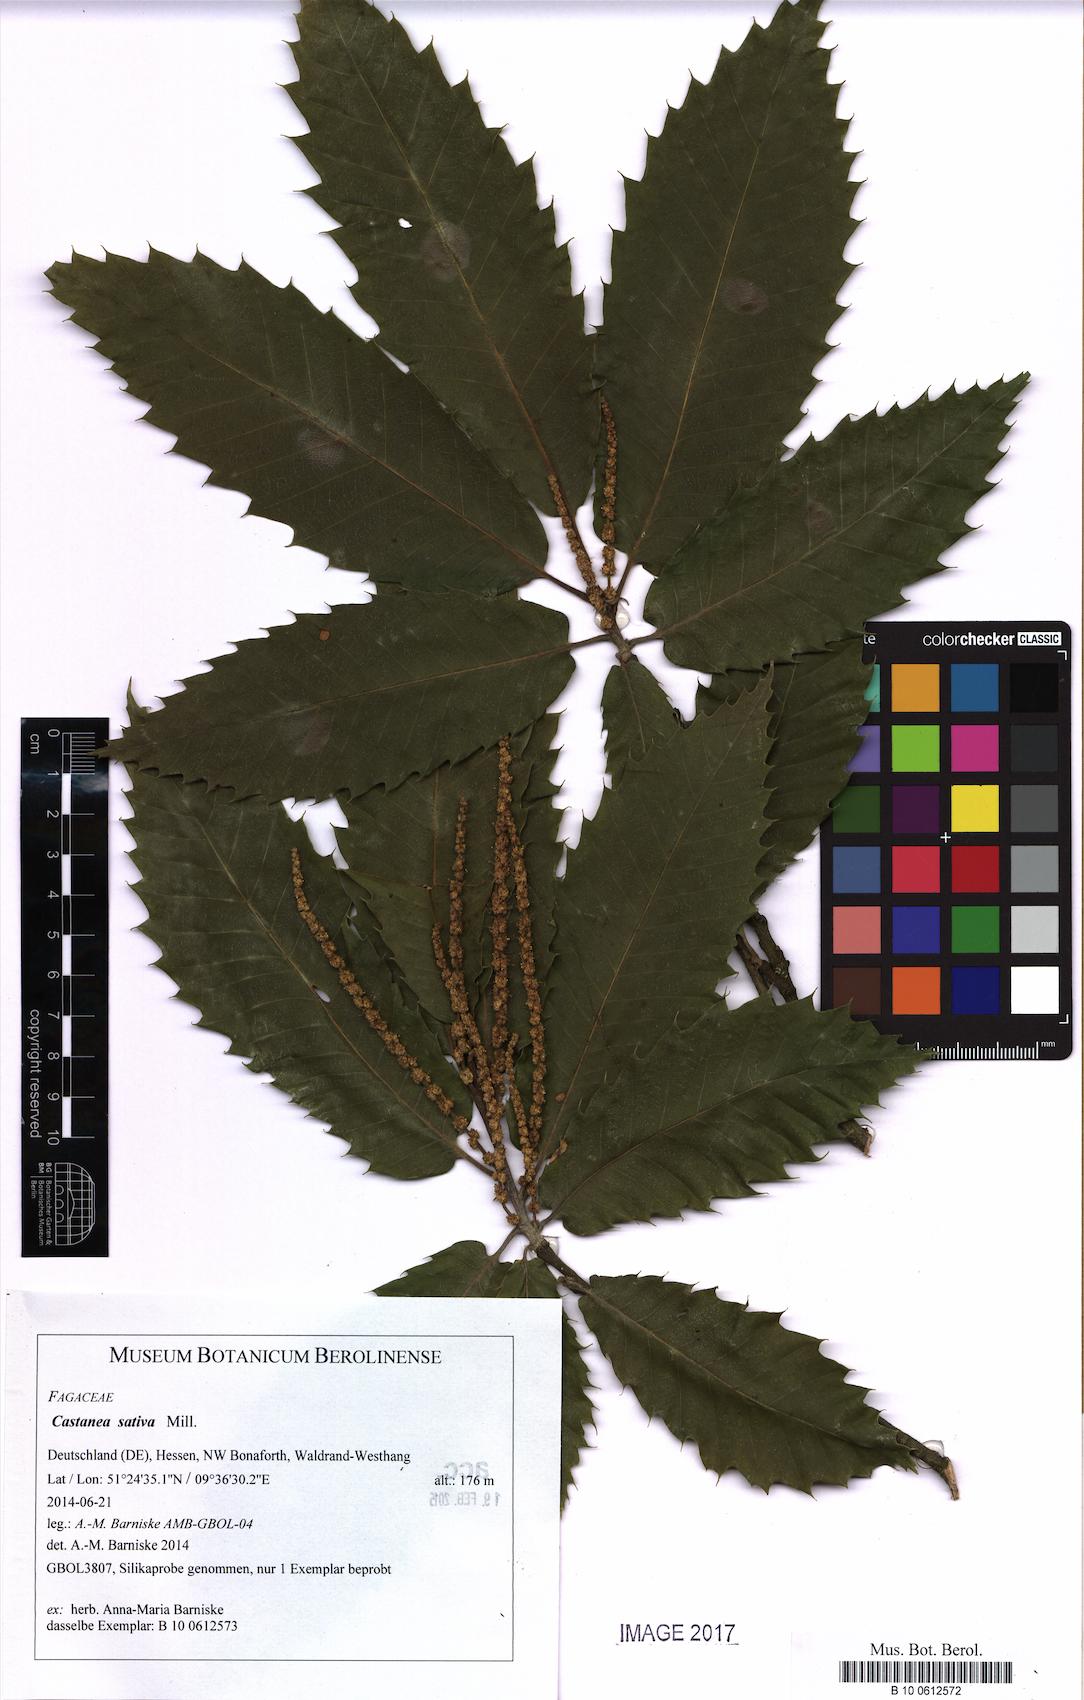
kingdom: Plantae
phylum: Tracheophyta
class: Magnoliopsida
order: Fagales
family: Fagaceae
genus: Castanea
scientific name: Castanea sativa
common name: Sweet chestnut
